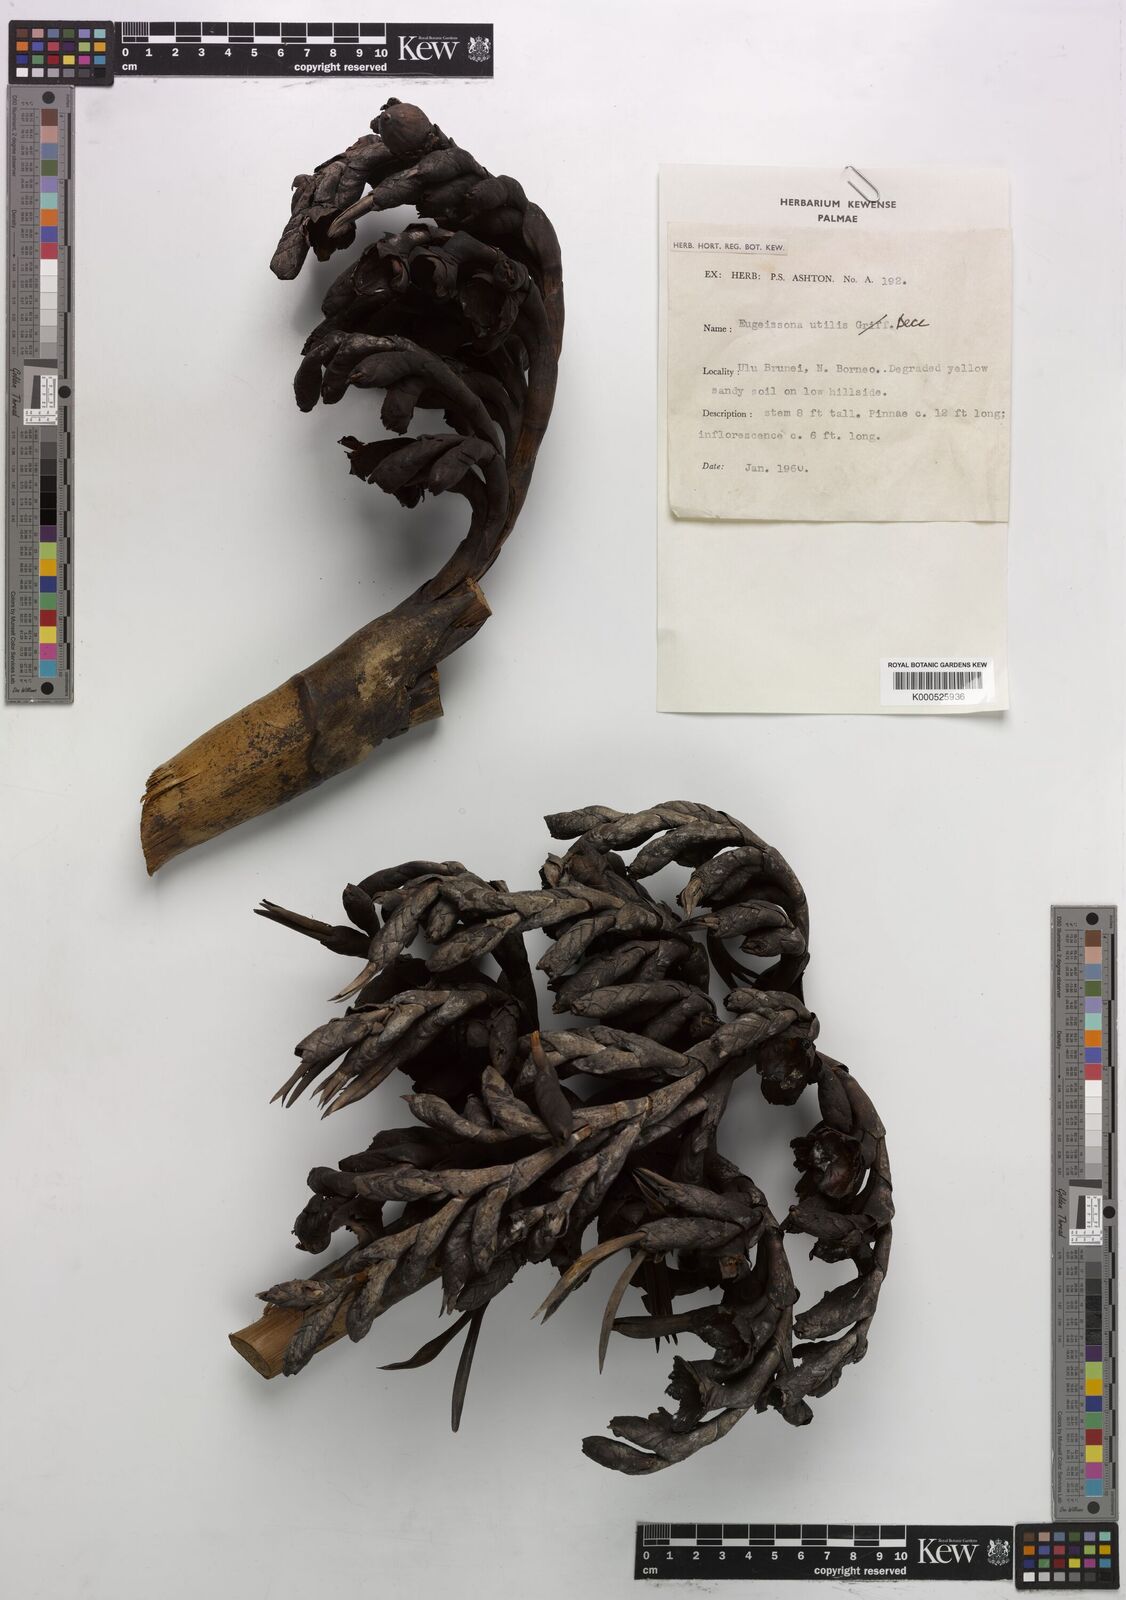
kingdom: Plantae
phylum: Tracheophyta
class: Liliopsida
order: Arecales
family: Arecaceae
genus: Eugeissona
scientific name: Eugeissona utilis
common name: Wild bornean sago palm
